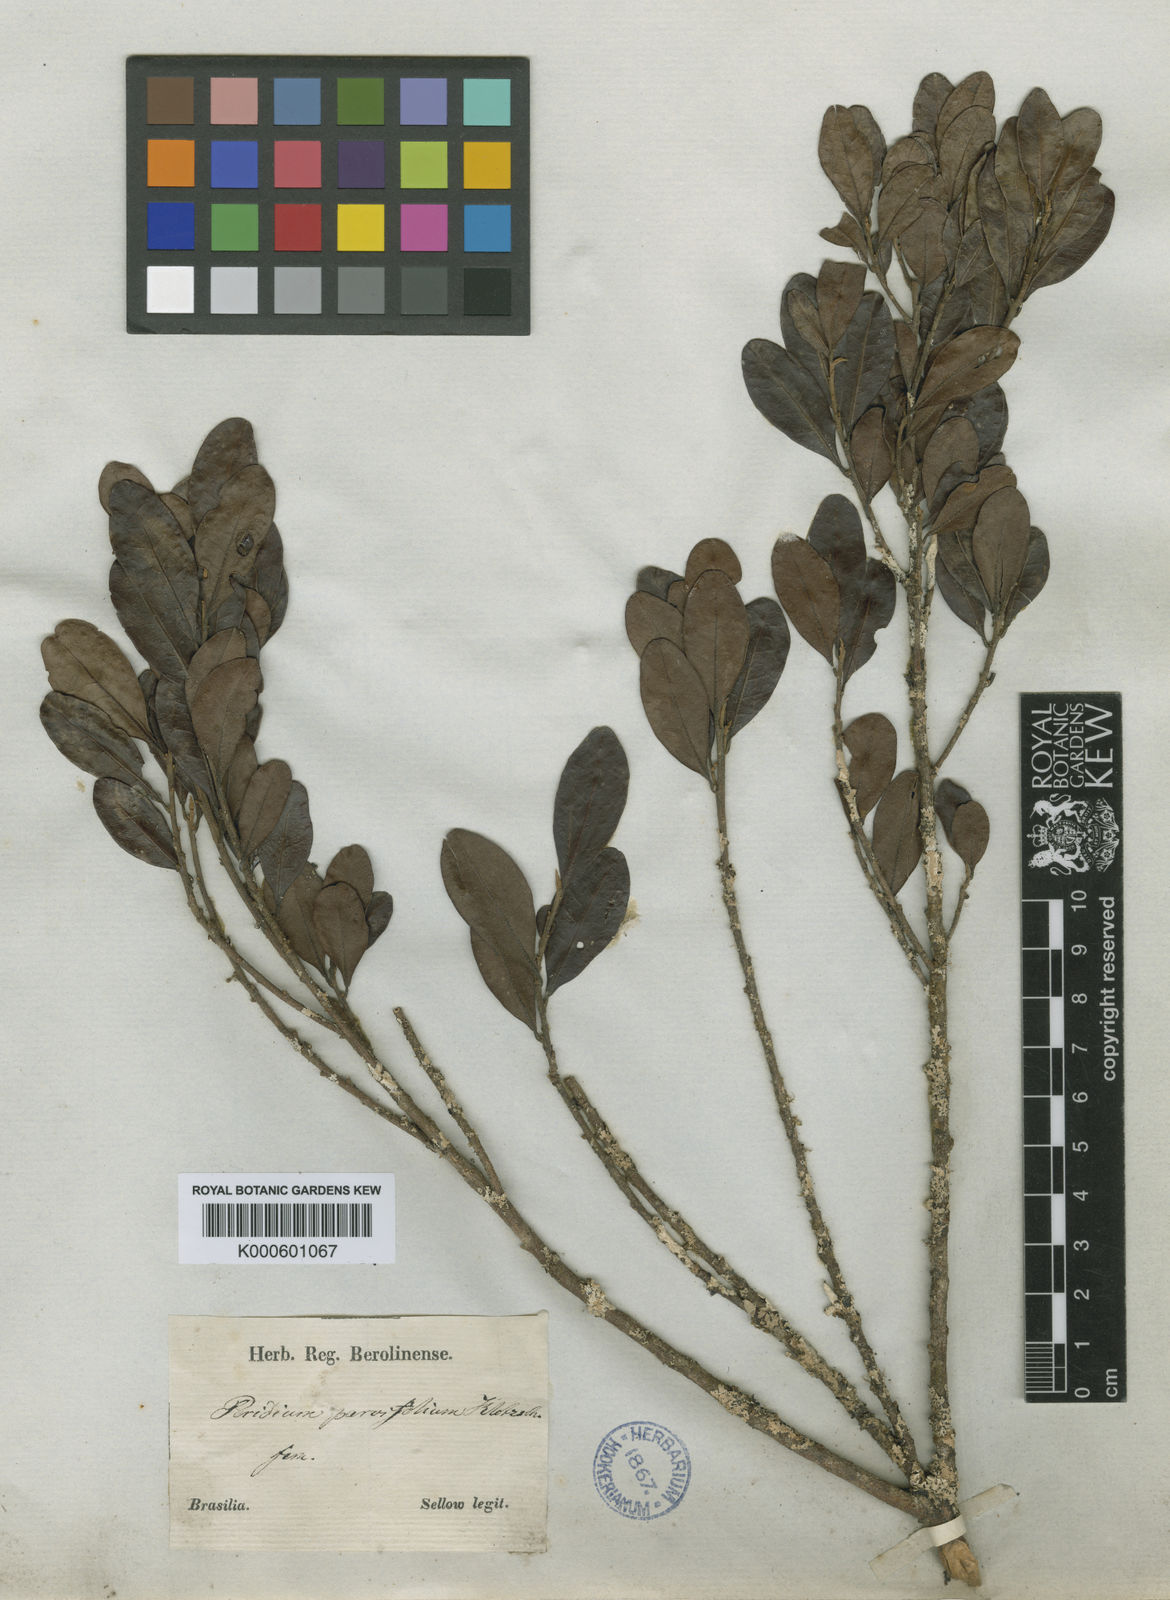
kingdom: Plantae
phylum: Tracheophyta
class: Magnoliopsida
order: Malpighiales
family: Peraceae
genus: Pera
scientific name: Pera
